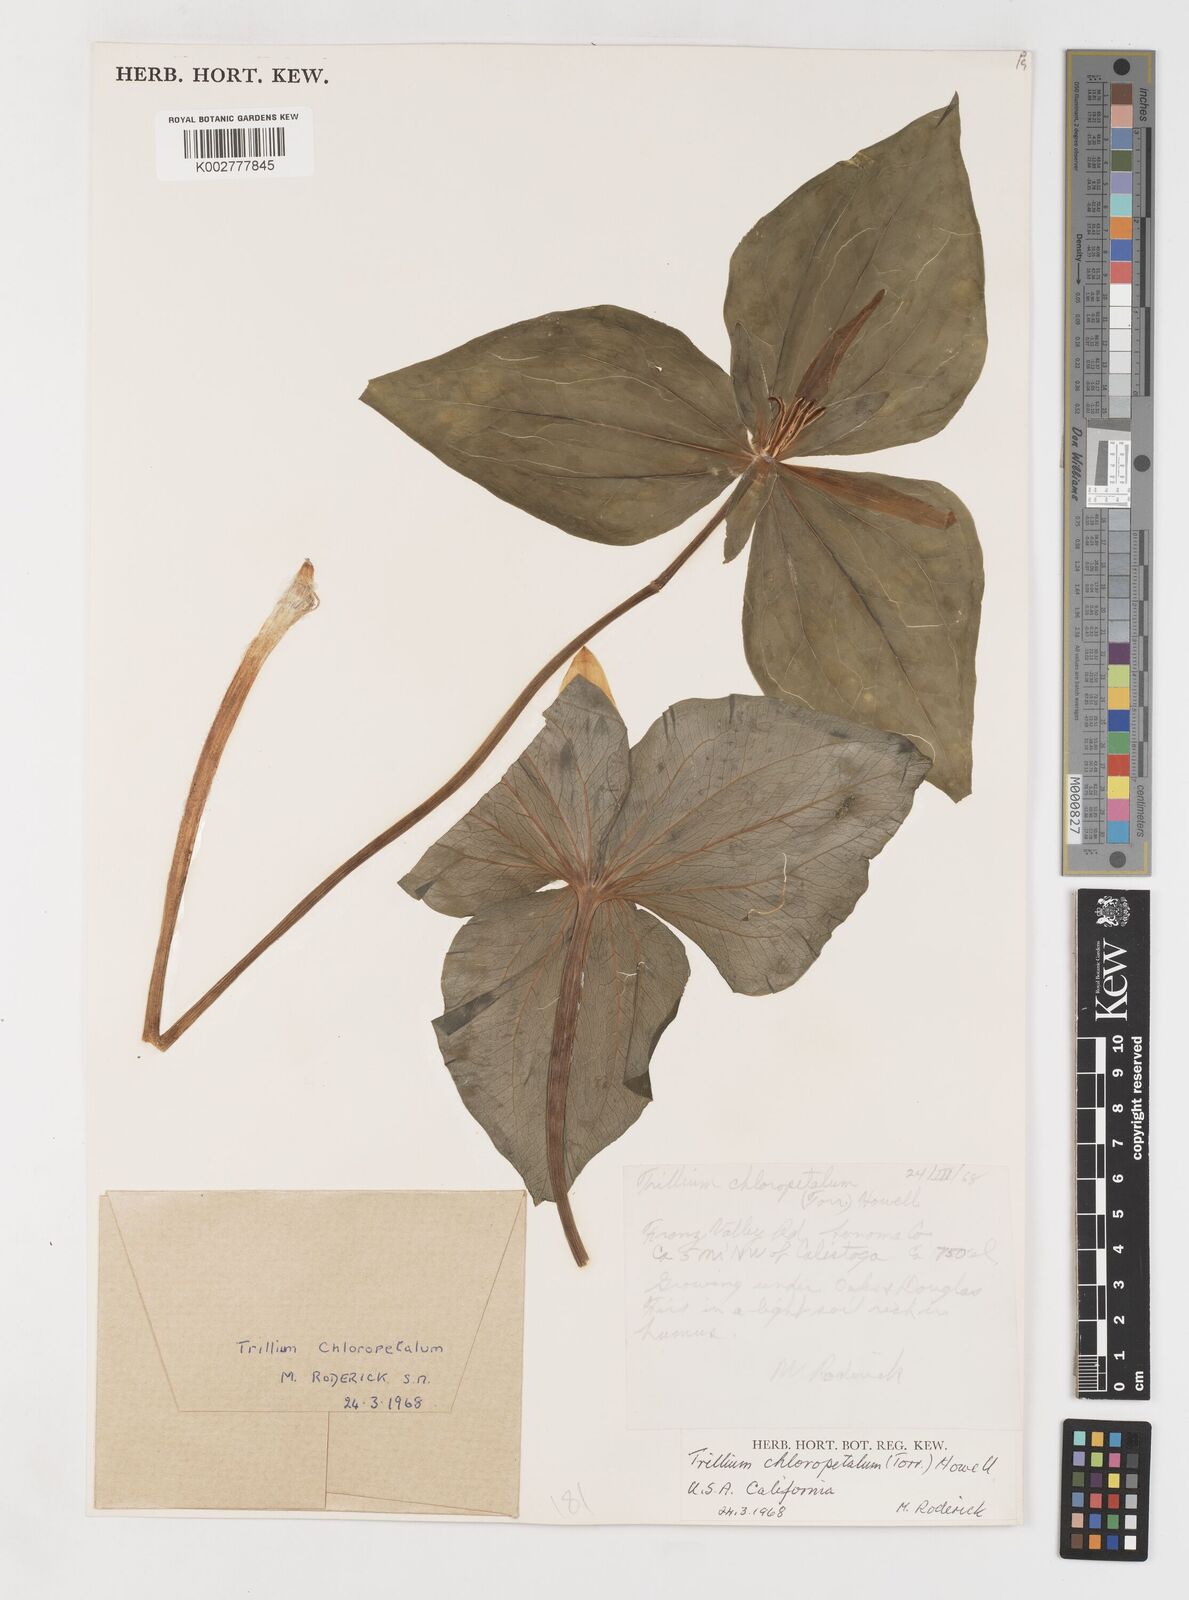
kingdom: Plantae
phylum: Tracheophyta
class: Liliopsida
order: Liliales
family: Melanthiaceae
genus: Trillium
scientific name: Trillium chloropetalum
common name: Giant trillium
